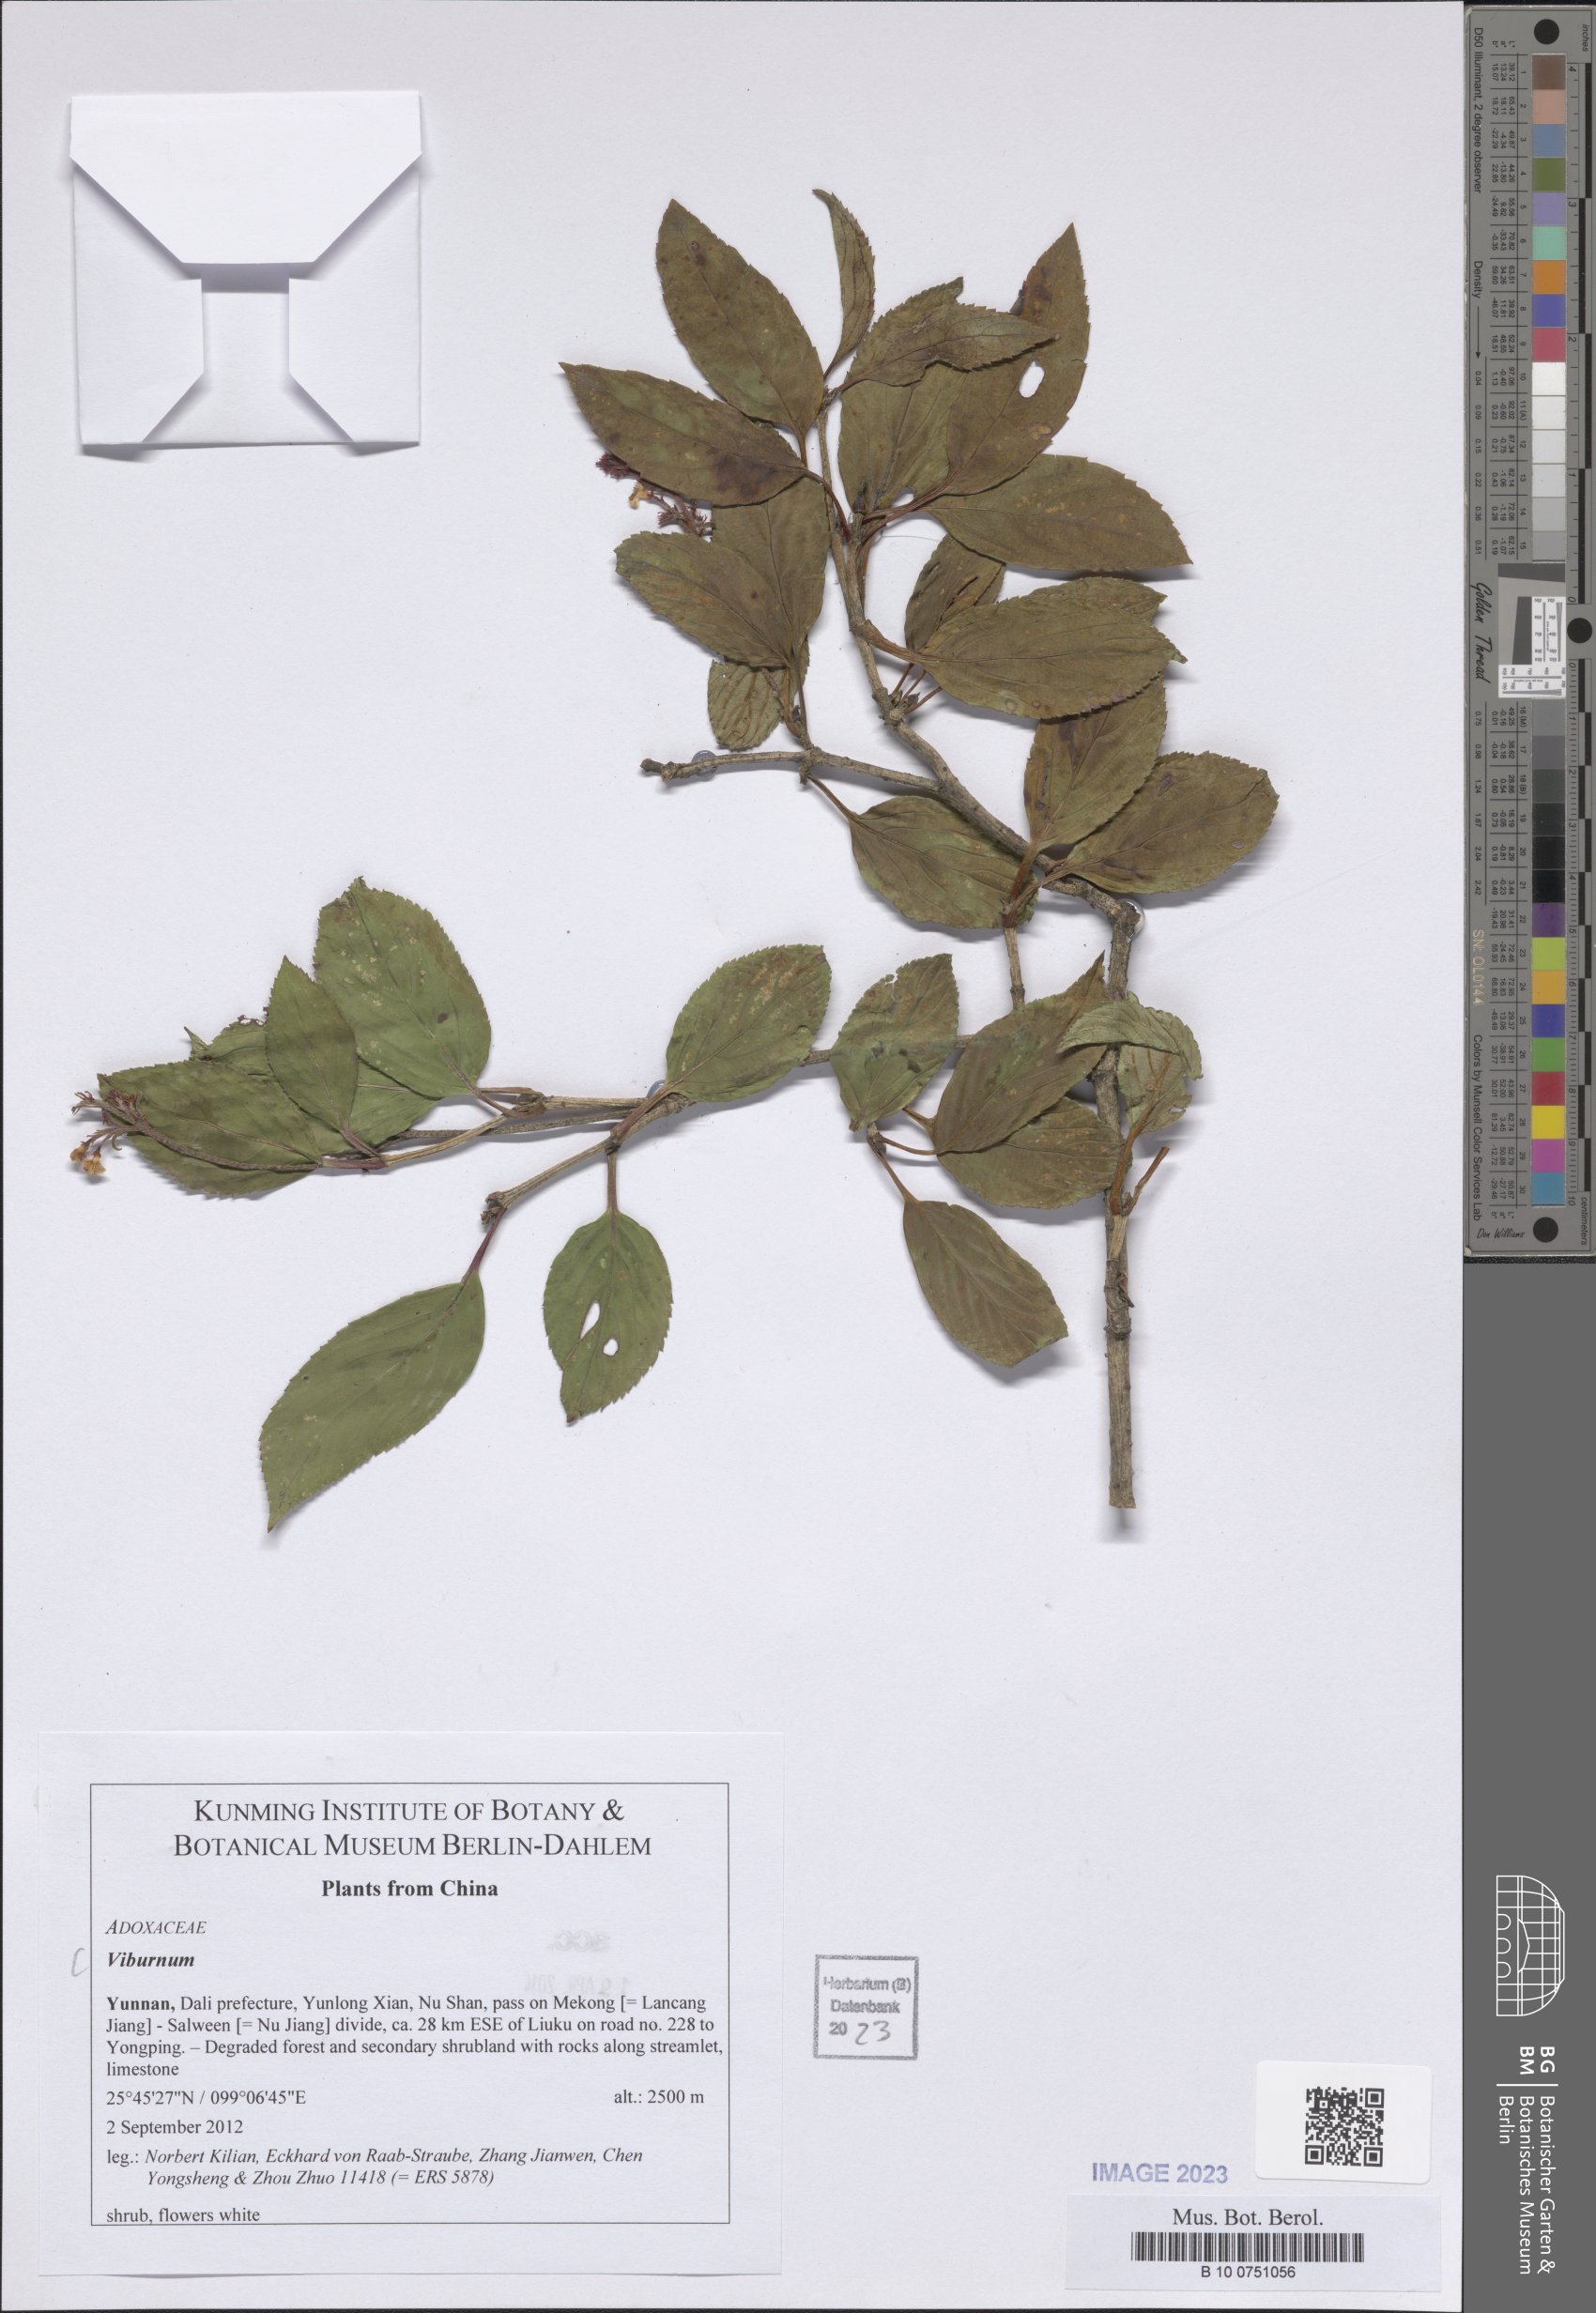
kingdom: Plantae
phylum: Tracheophyta
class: Magnoliopsida
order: Dipsacales
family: Viburnaceae
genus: Viburnum
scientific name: Viburnum
